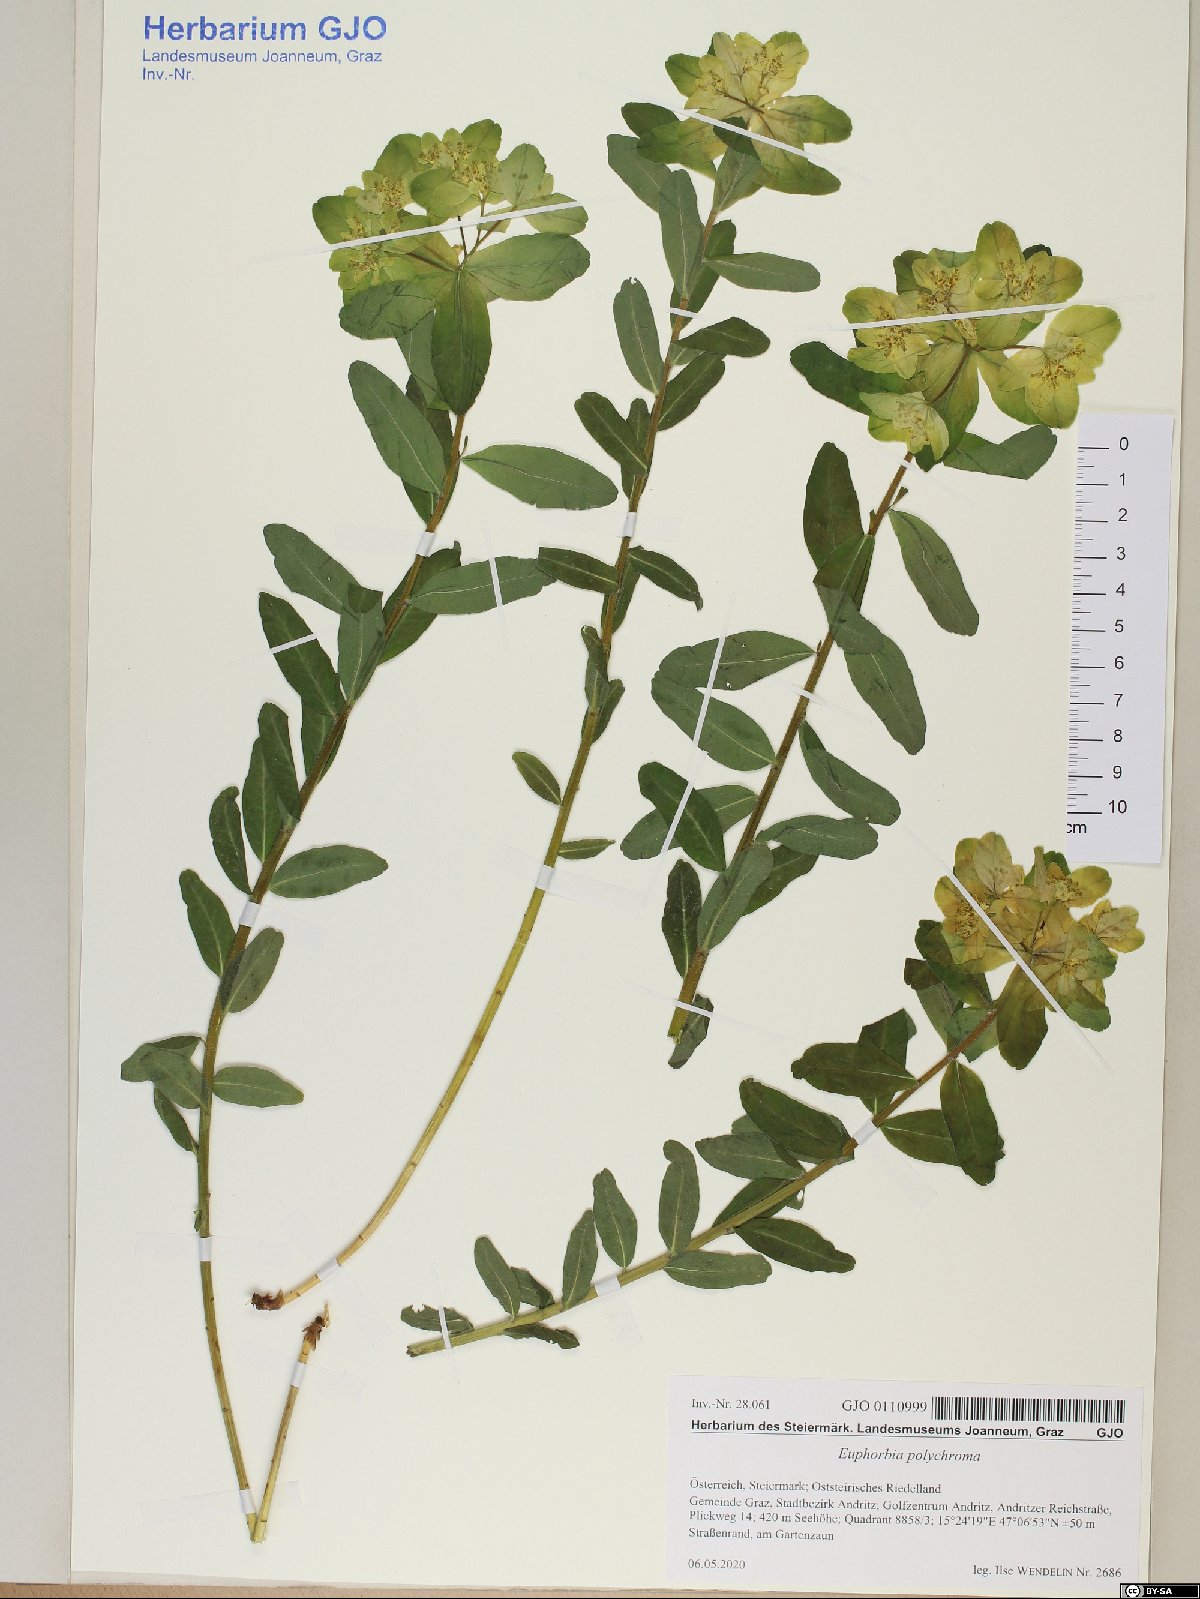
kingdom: Plantae
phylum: Tracheophyta
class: Magnoliopsida
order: Malpighiales
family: Euphorbiaceae
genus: Euphorbia
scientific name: Euphorbia epithymoides
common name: Cushion spurge
